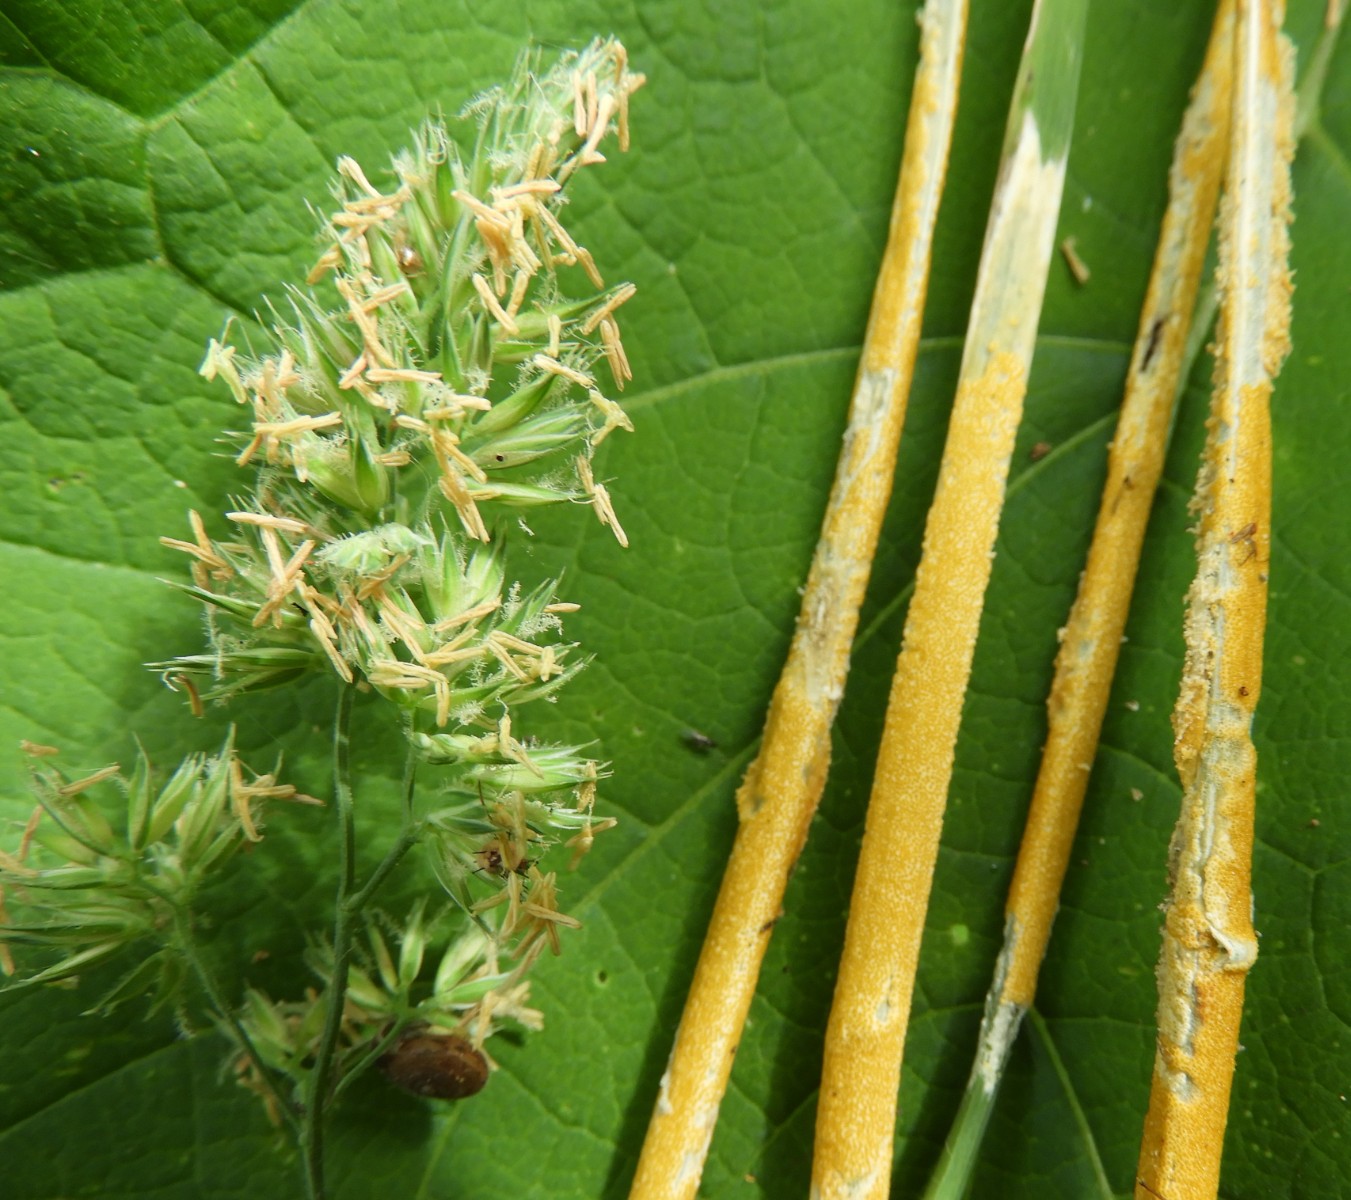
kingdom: Fungi
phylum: Ascomycota
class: Sordariomycetes
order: Hypocreales
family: Clavicipitaceae
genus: Epichloe
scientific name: Epichloe typhina
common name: almindelig kernerør
